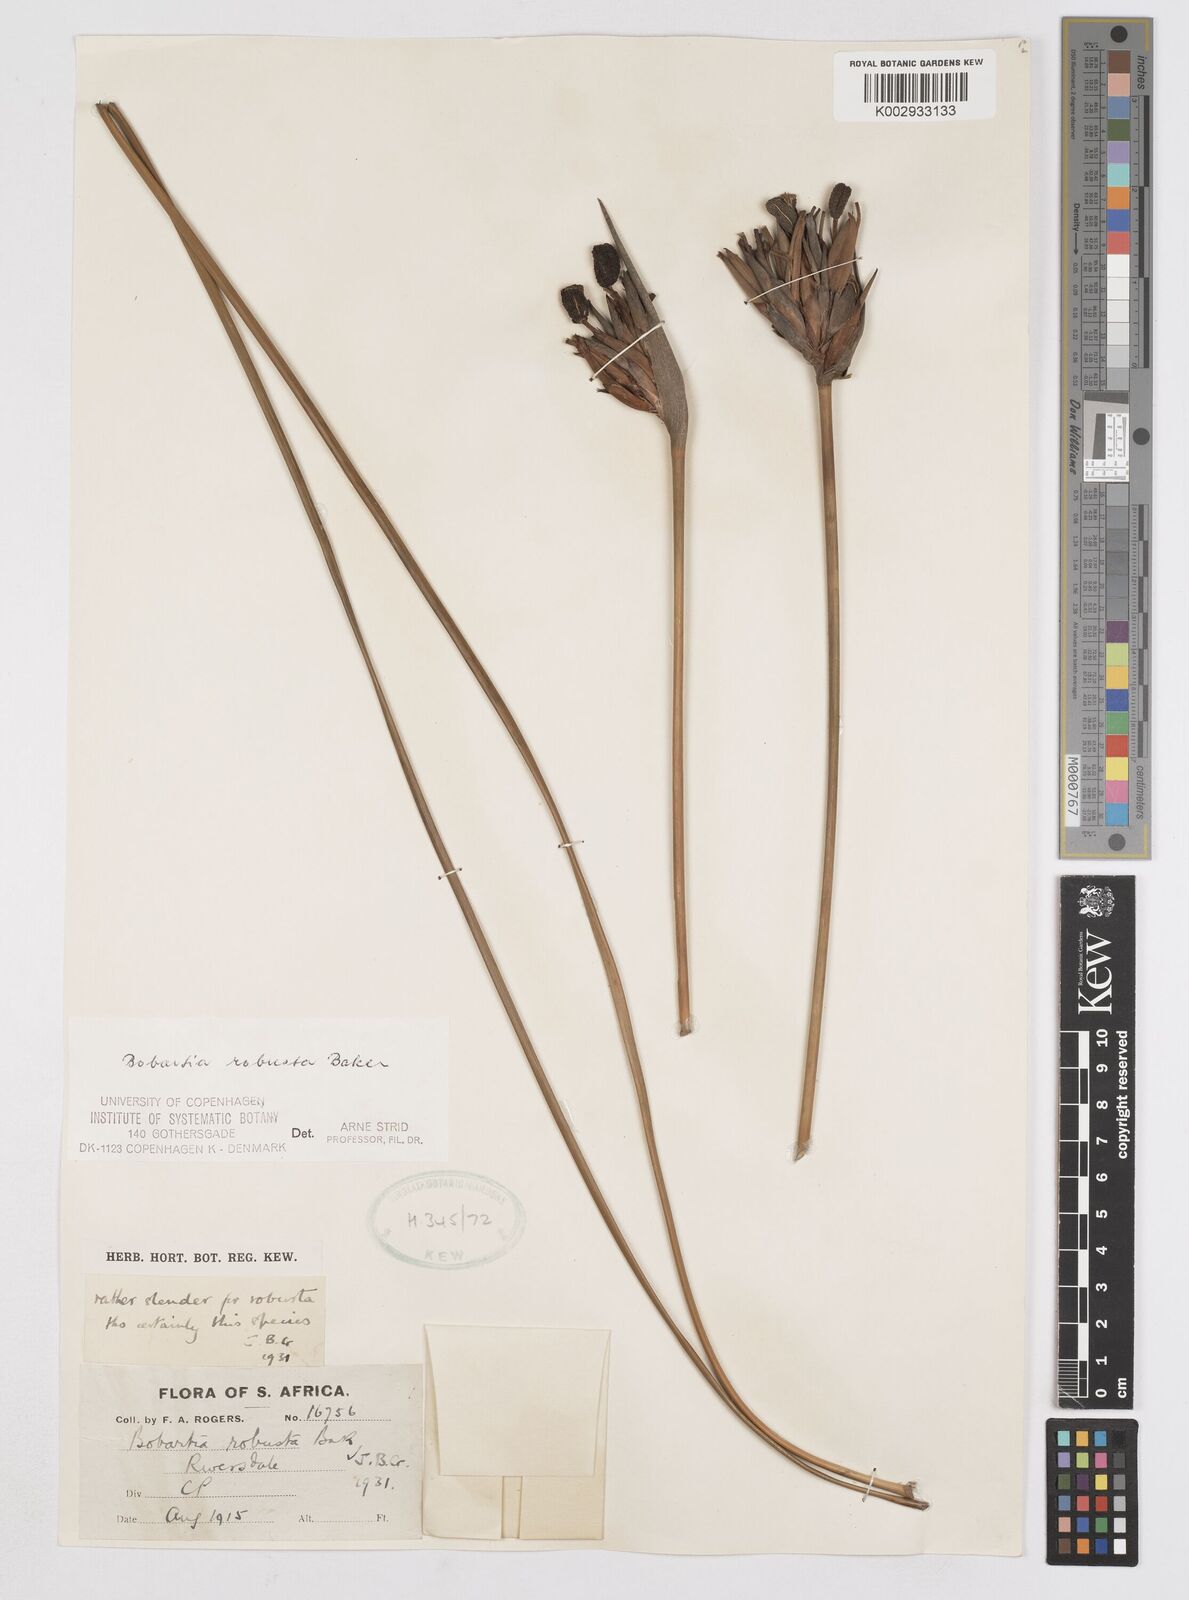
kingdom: Plantae
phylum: Tracheophyta
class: Liliopsida
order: Asparagales
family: Iridaceae
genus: Bobartia
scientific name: Bobartia robusta
